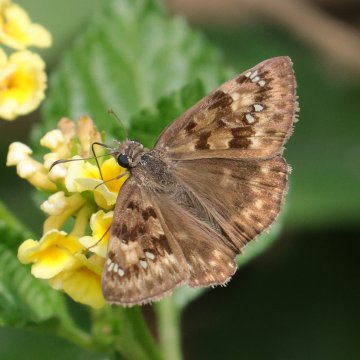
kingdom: Animalia
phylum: Arthropoda
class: Insecta
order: Lepidoptera
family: Hesperiidae
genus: Gesta
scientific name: Gesta
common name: Horace's Duskywing
